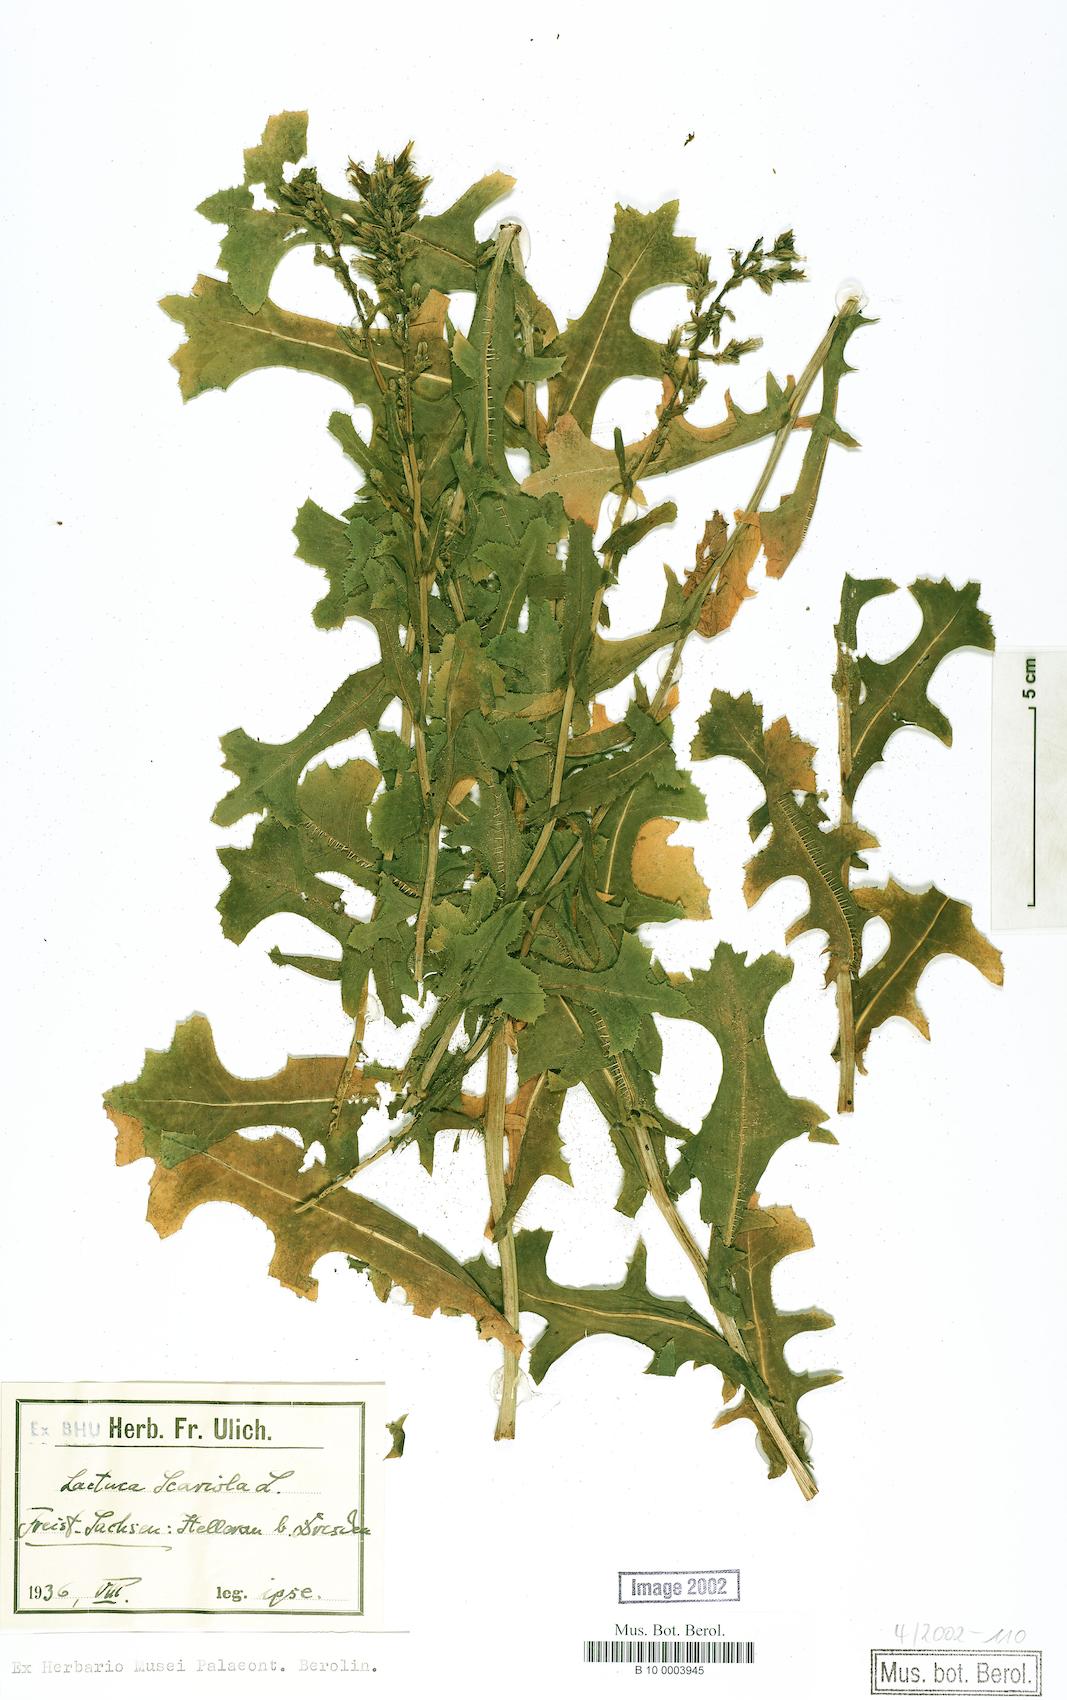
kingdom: Plantae
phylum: Tracheophyta
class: Magnoliopsida
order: Asterales
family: Asteraceae
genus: Lactuca
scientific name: Lactuca serriola
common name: Prickly lettuce
